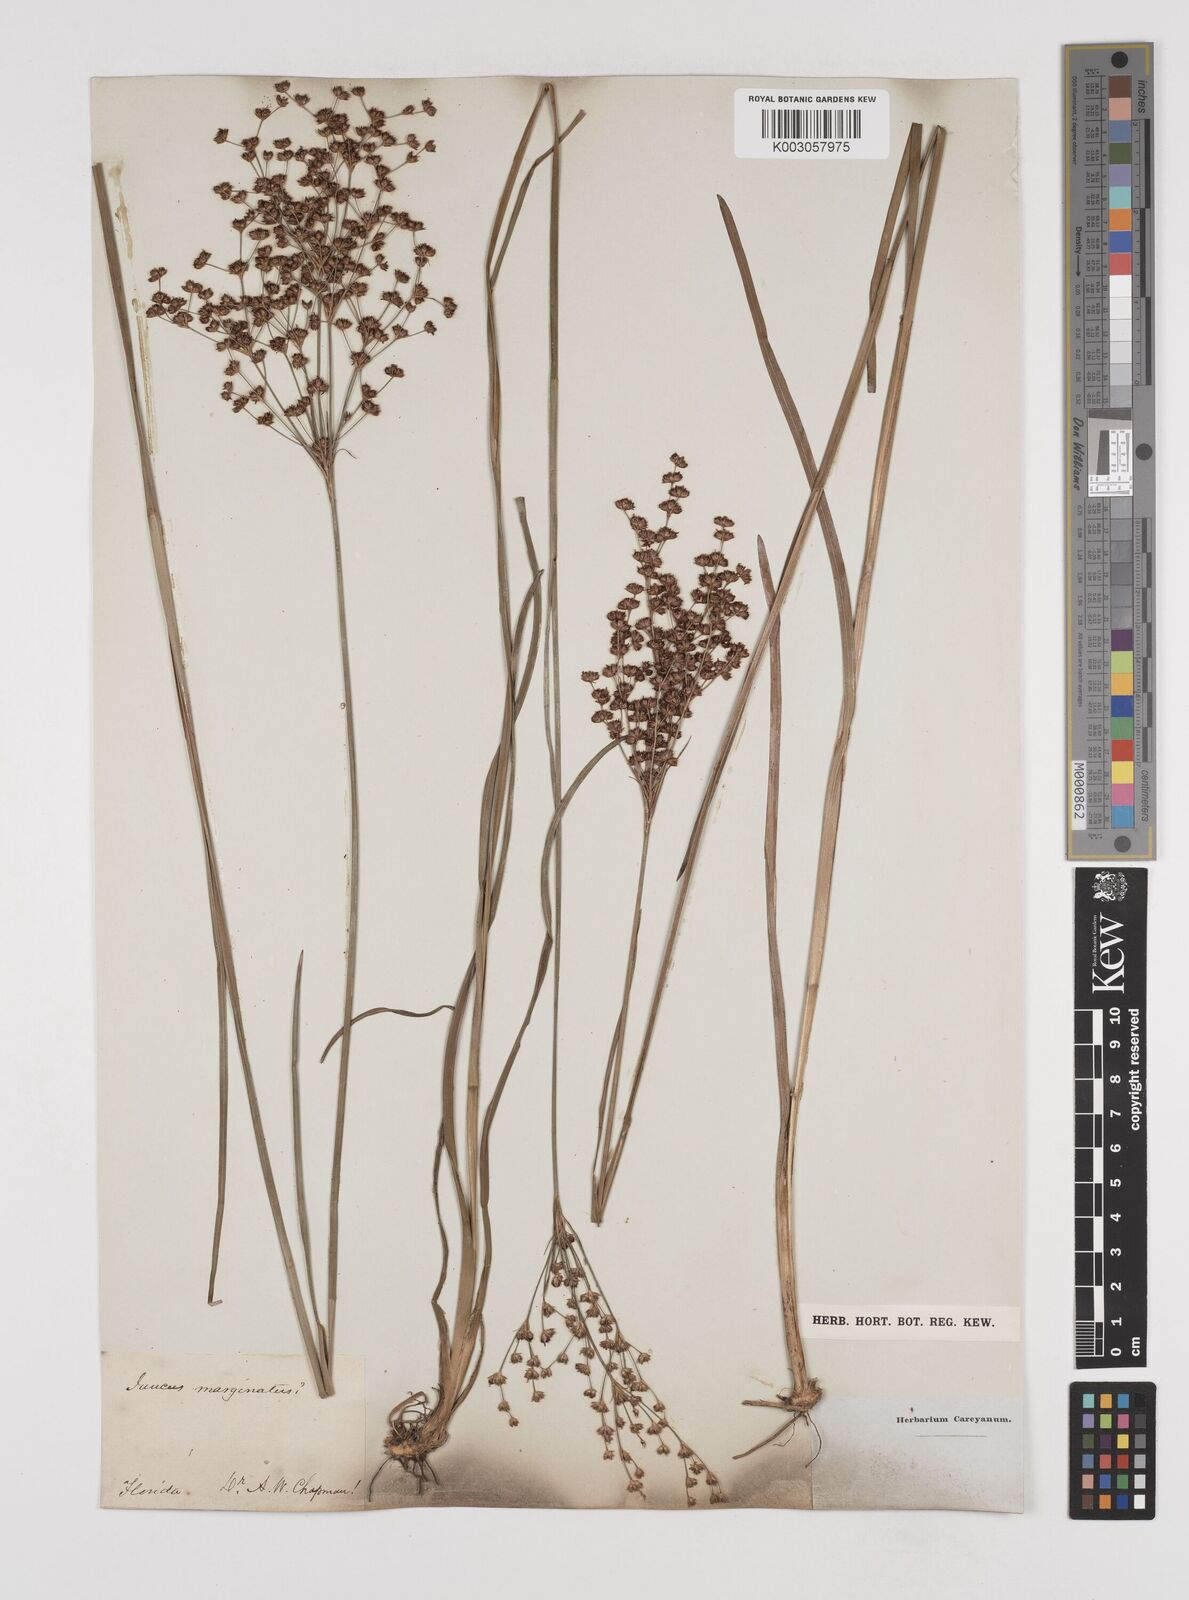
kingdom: Plantae
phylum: Tracheophyta
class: Liliopsida
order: Poales
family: Juncaceae
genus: Juncus
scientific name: Juncus marginatus
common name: Grass-leaf rush
